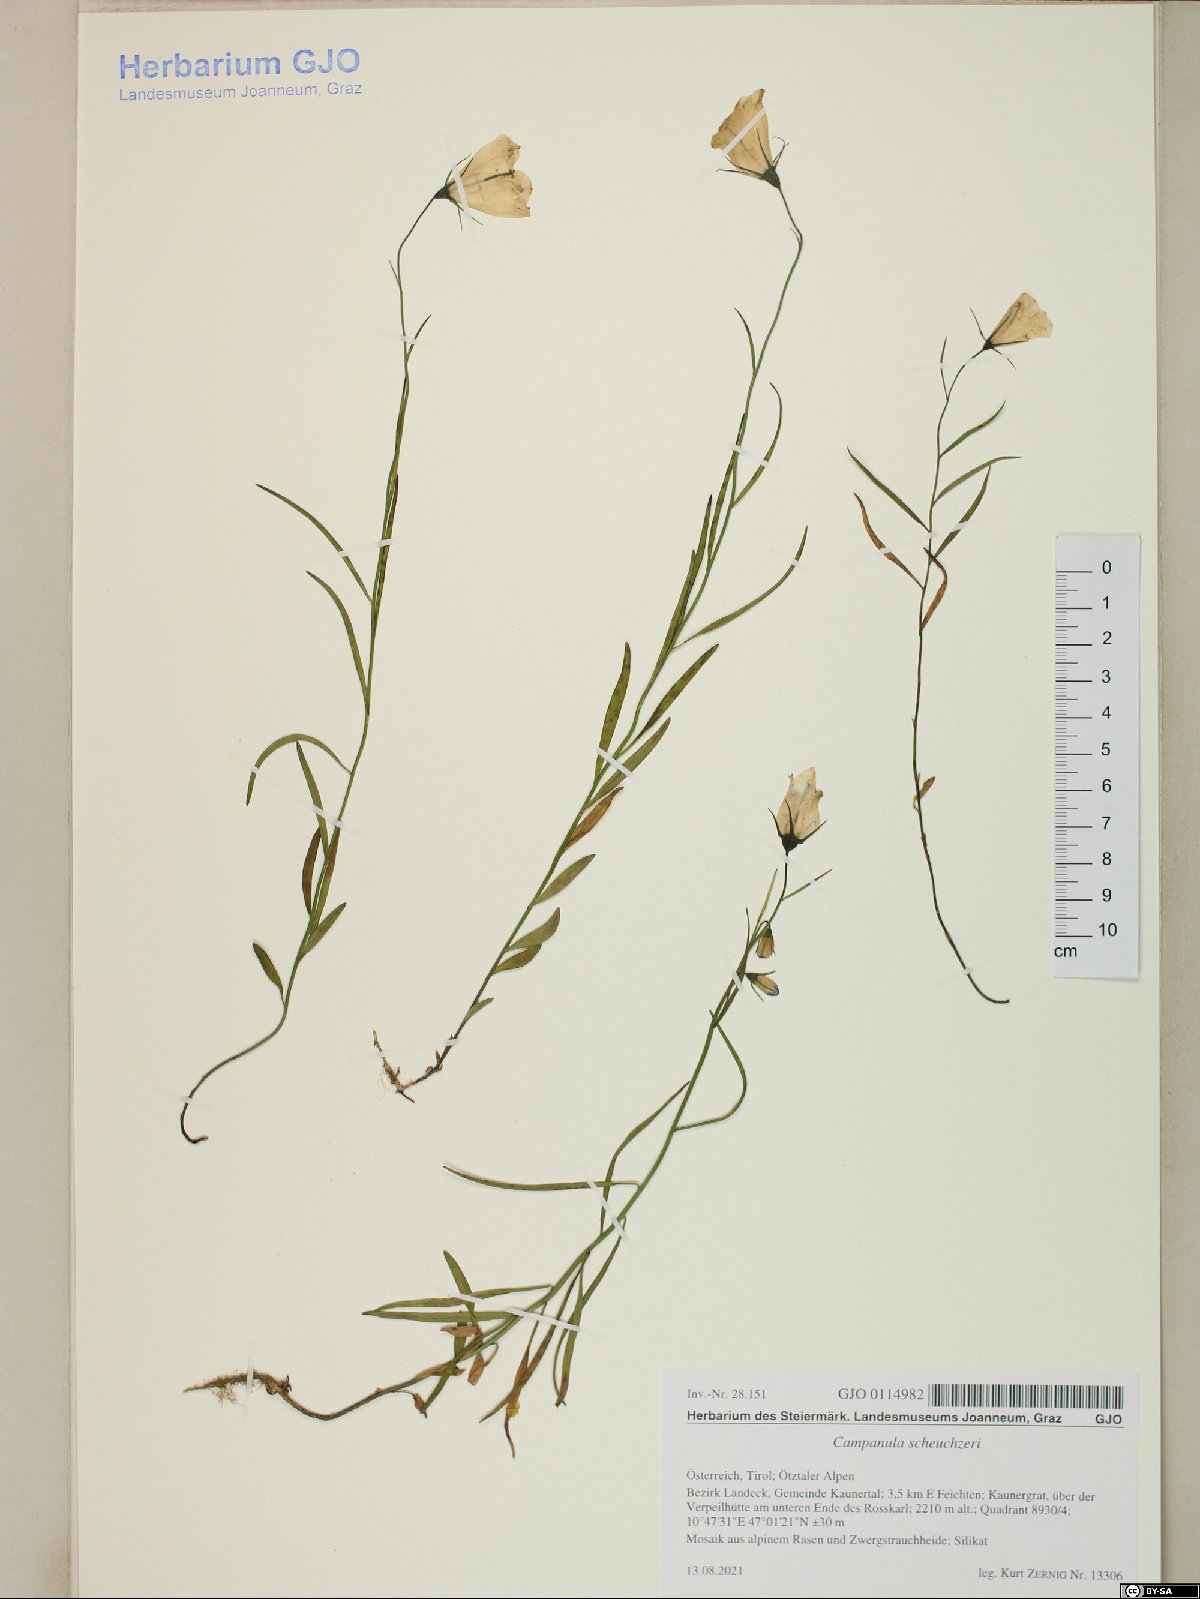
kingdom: Plantae
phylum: Tracheophyta
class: Magnoliopsida
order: Asterales
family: Campanulaceae
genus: Campanula
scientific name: Campanula scheuchzeri
